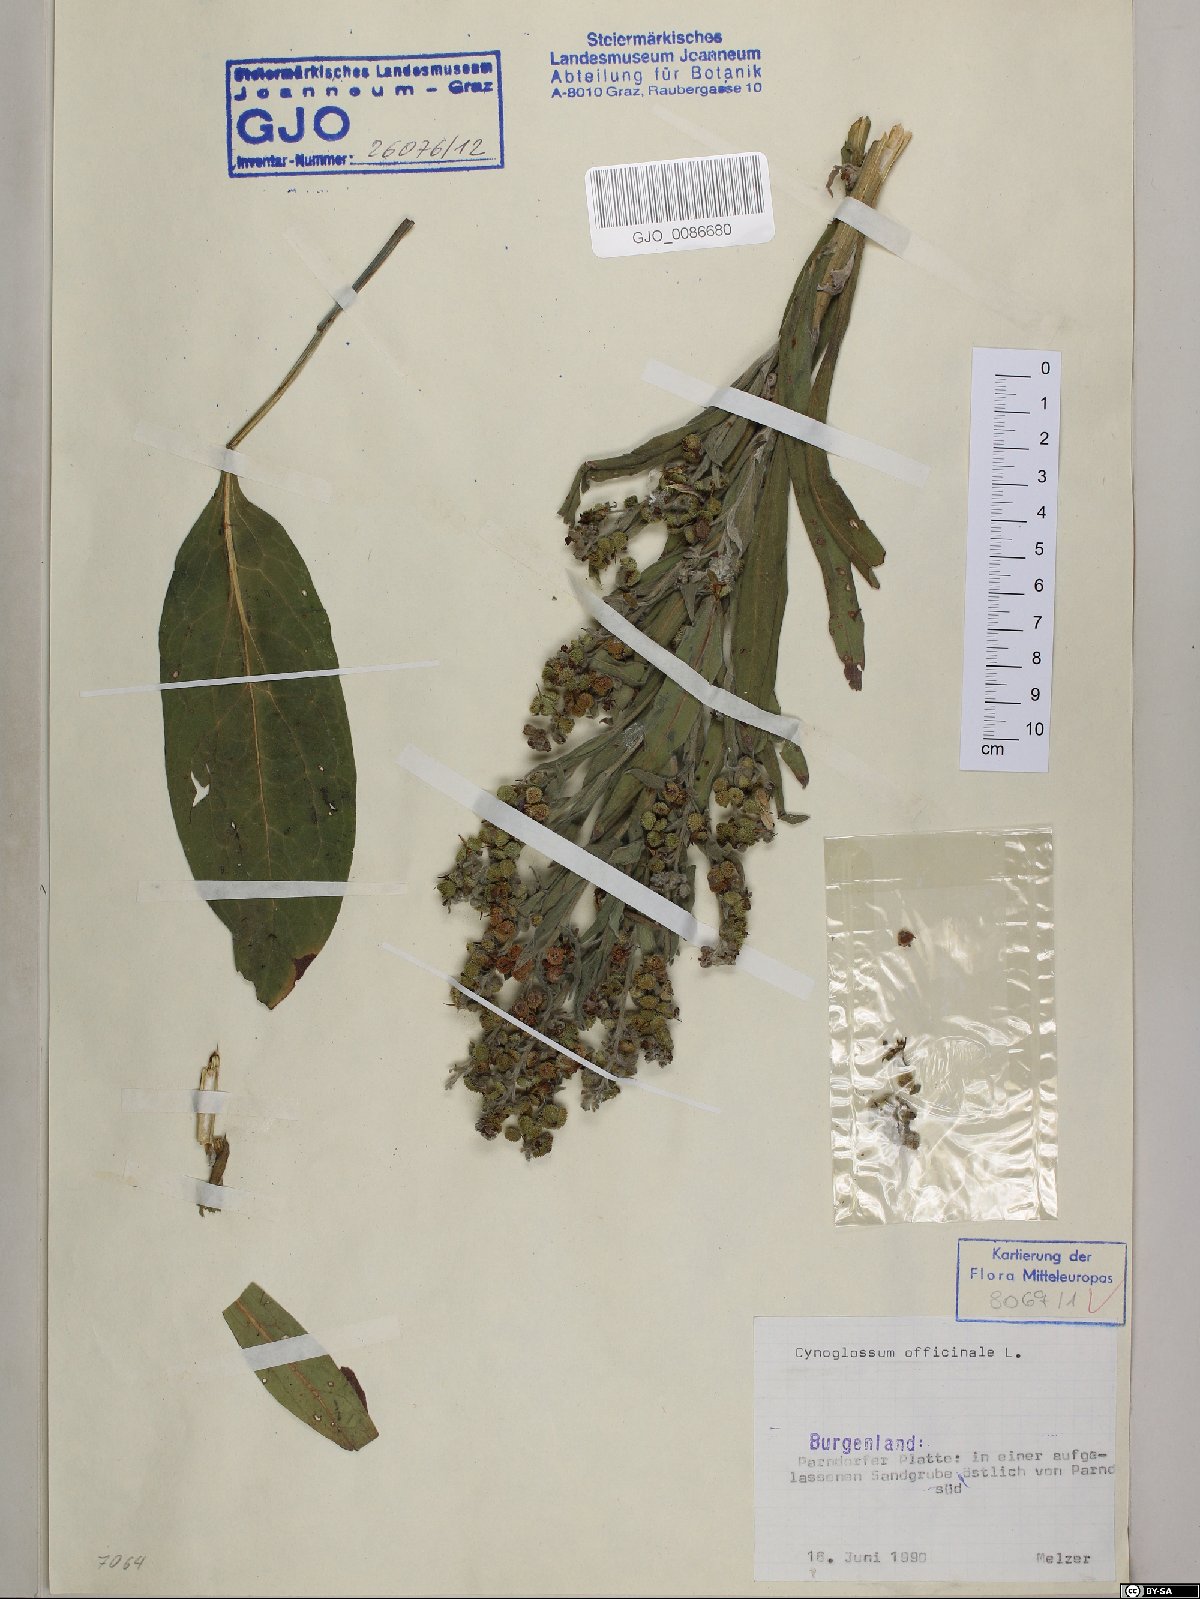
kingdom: Plantae
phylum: Tracheophyta
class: Magnoliopsida
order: Boraginales
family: Boraginaceae
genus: Cynoglossum
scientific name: Cynoglossum officinale
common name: Hound's-tongue
